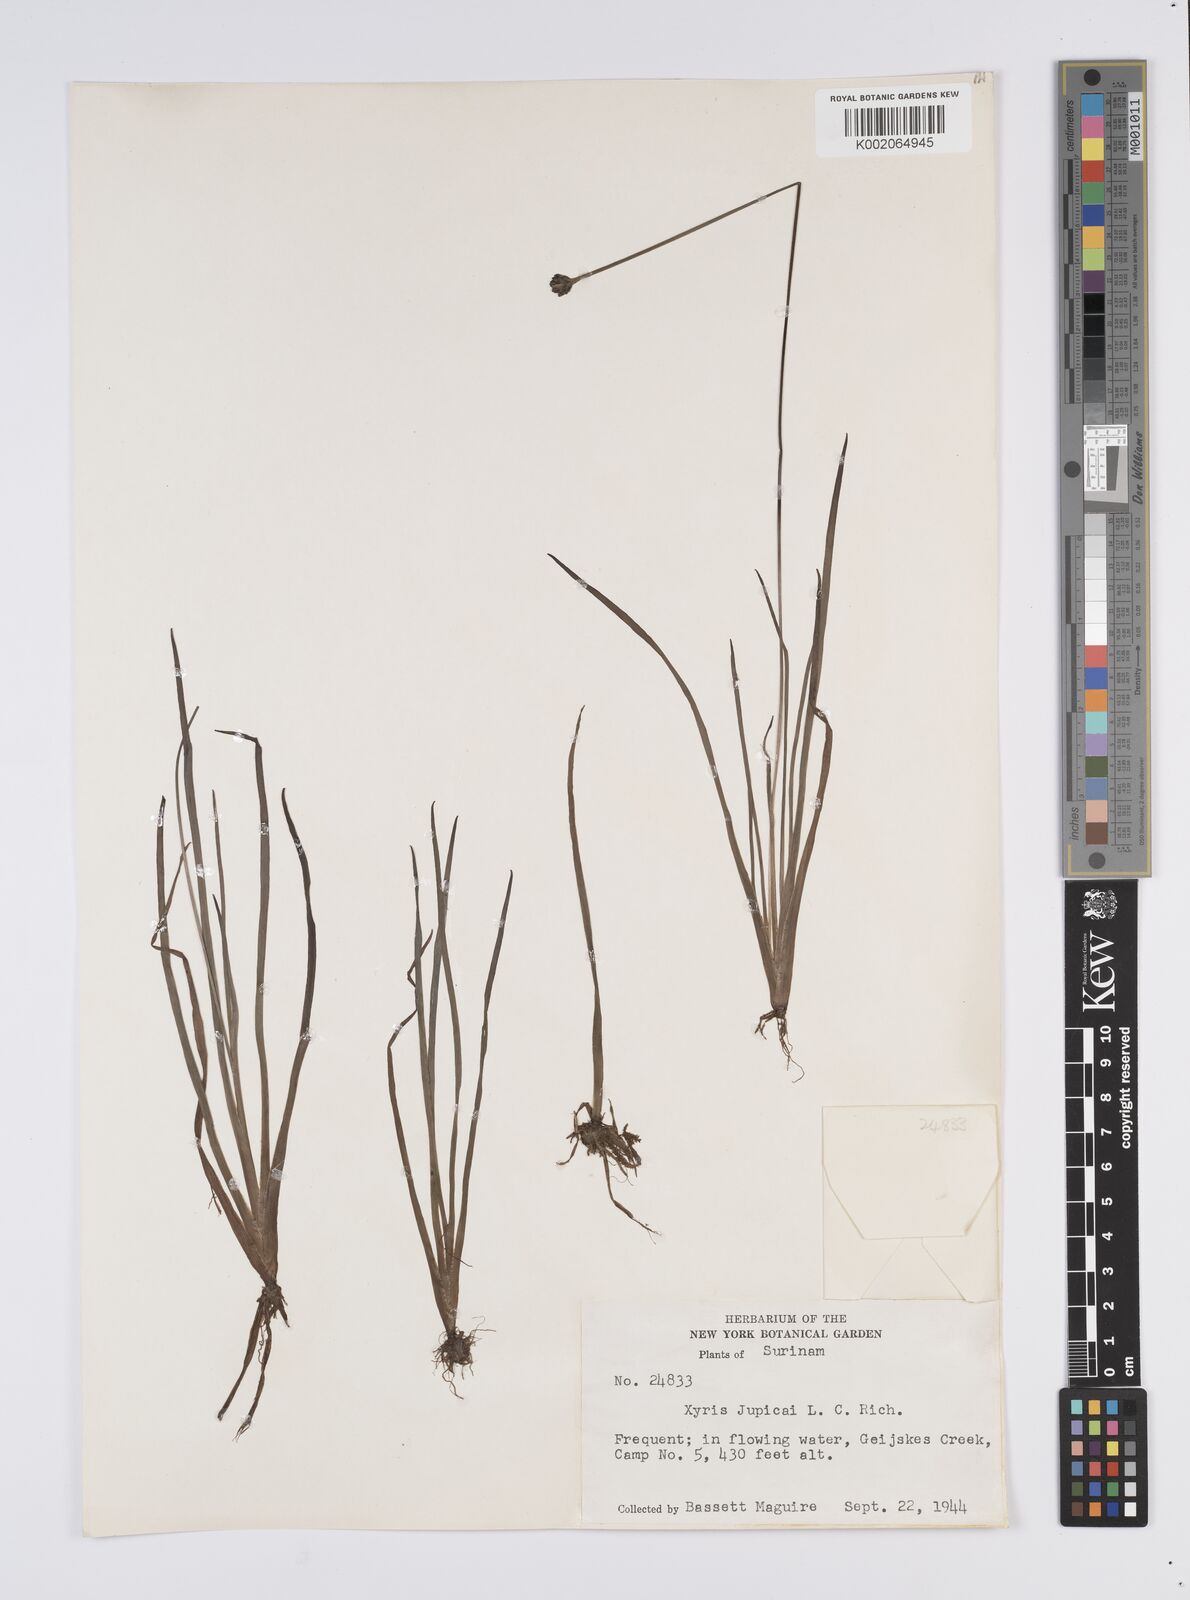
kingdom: Plantae
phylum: Tracheophyta
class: Liliopsida
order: Poales
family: Xyridaceae
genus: Xyris
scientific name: Xyris jupicai
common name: Richard's yelloweyed grass
